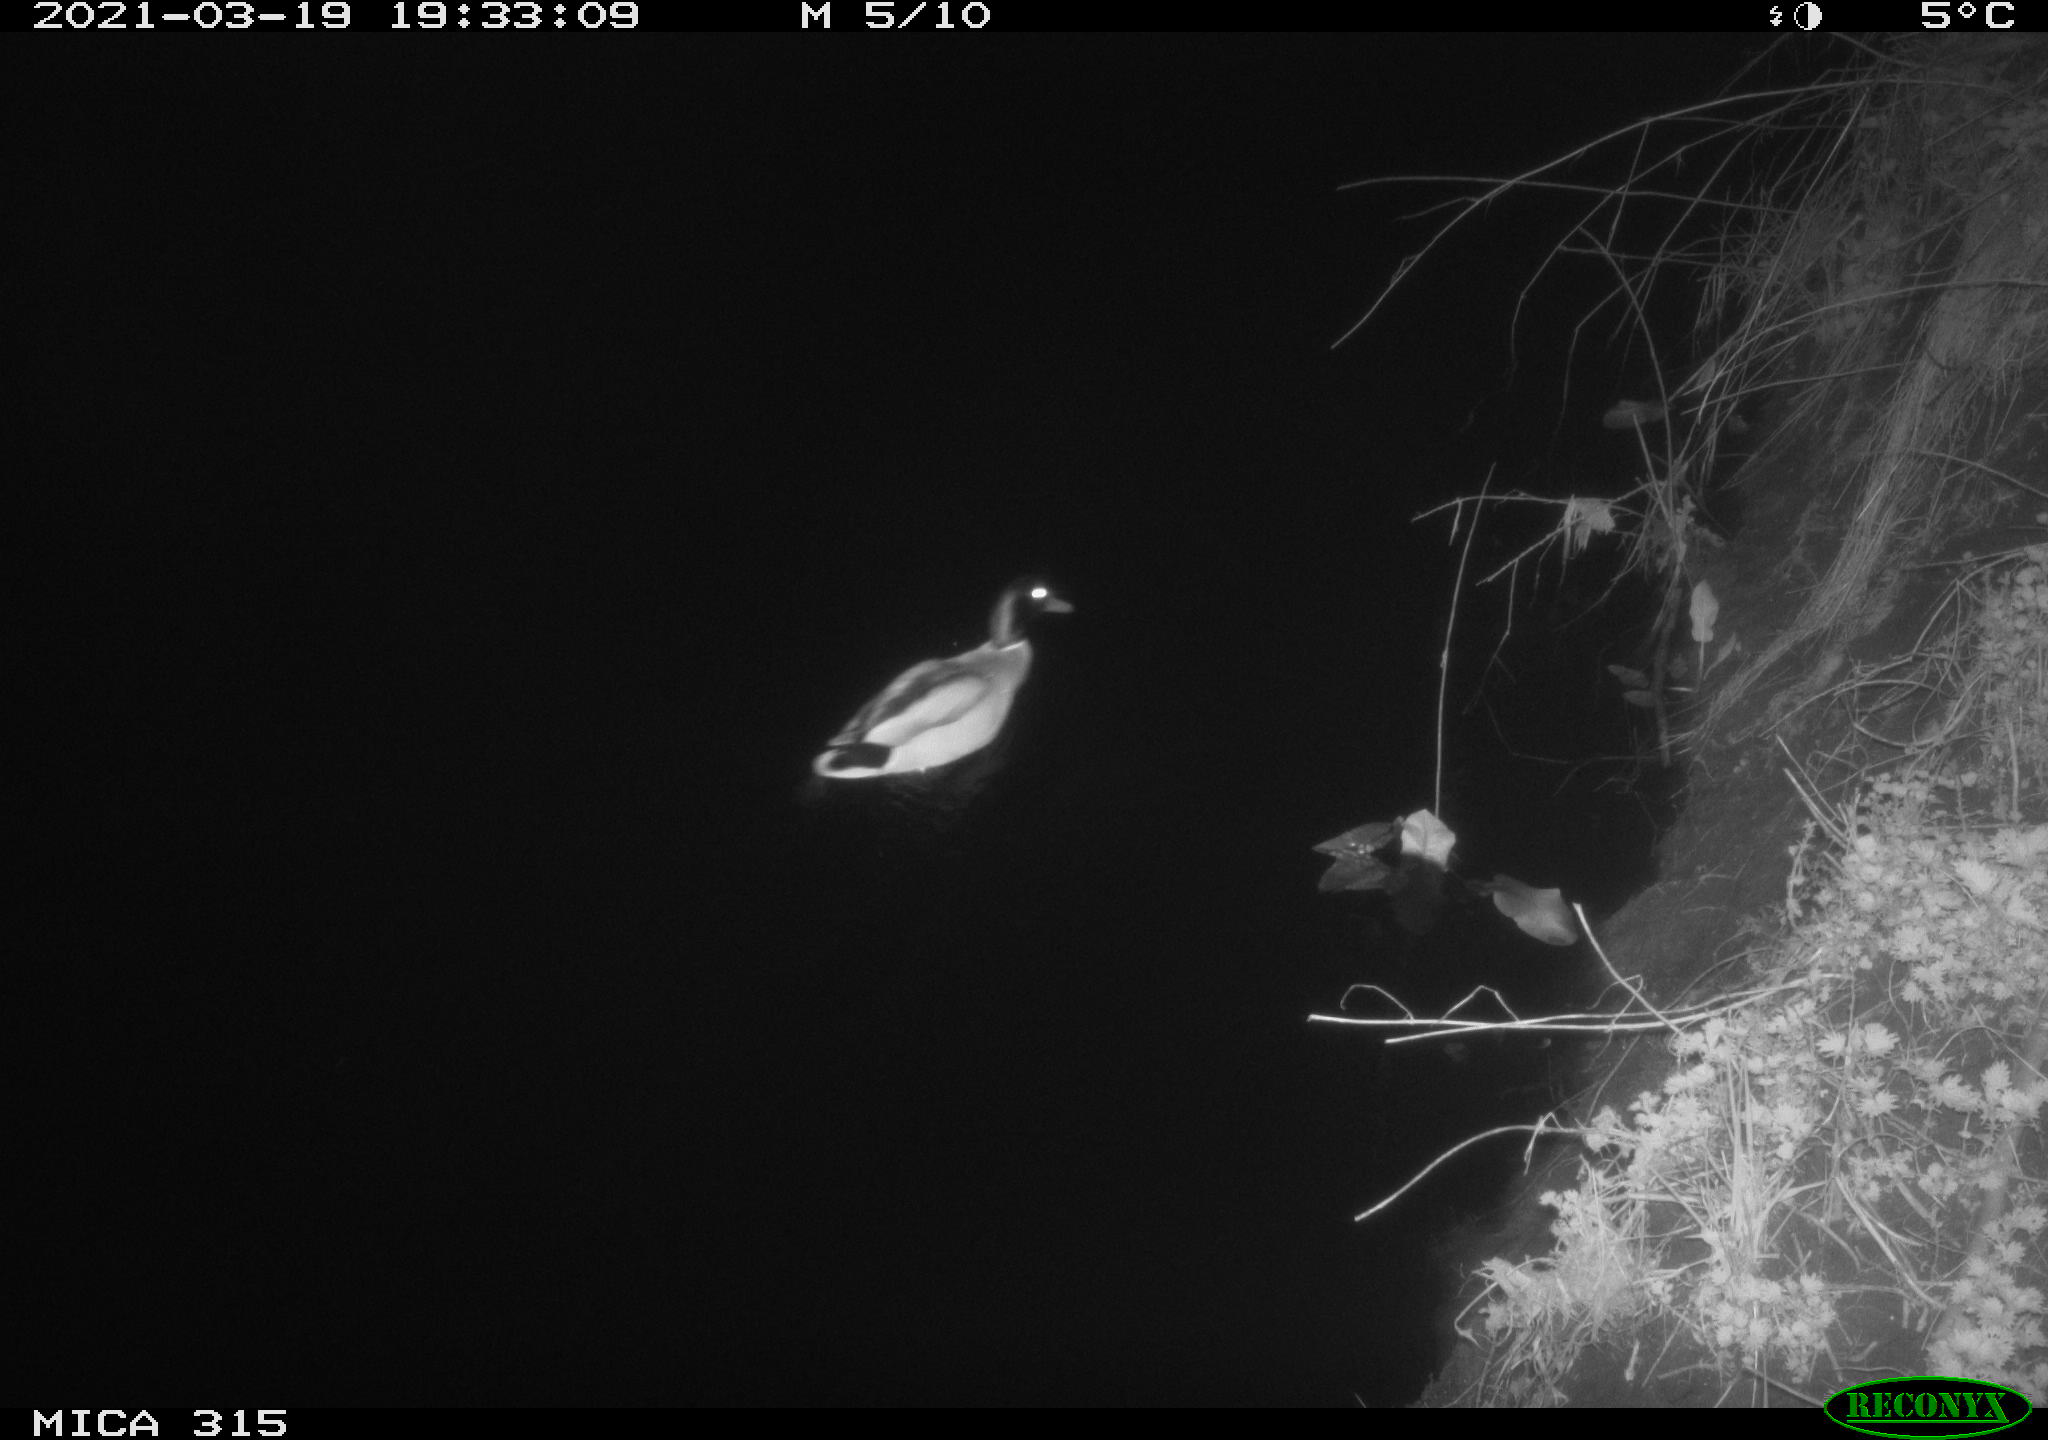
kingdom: Animalia
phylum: Chordata
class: Aves
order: Anseriformes
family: Anatidae
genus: Anas
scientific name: Anas platyrhynchos
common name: Mallard
